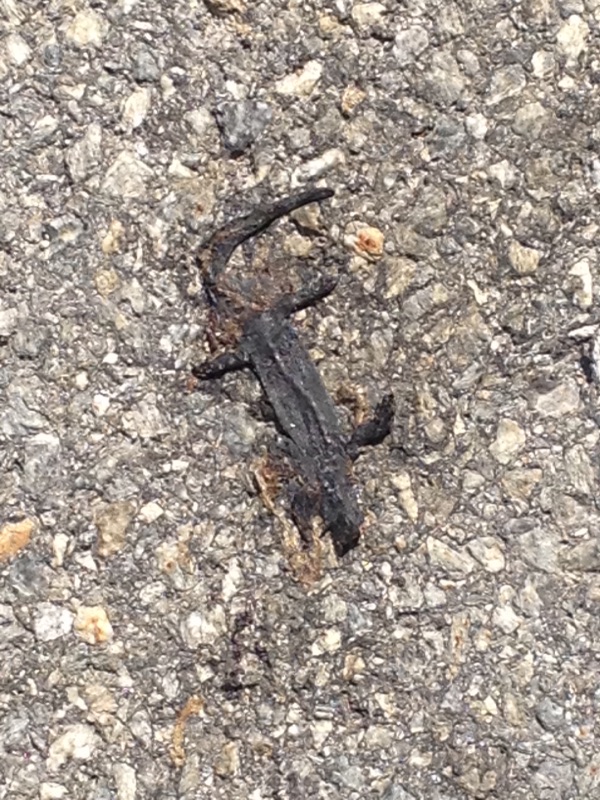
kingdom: Animalia
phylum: Chordata
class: Amphibia
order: Caudata
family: Salamandridae
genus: Salamandra
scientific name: Salamandra atra
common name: Alpine salamander
